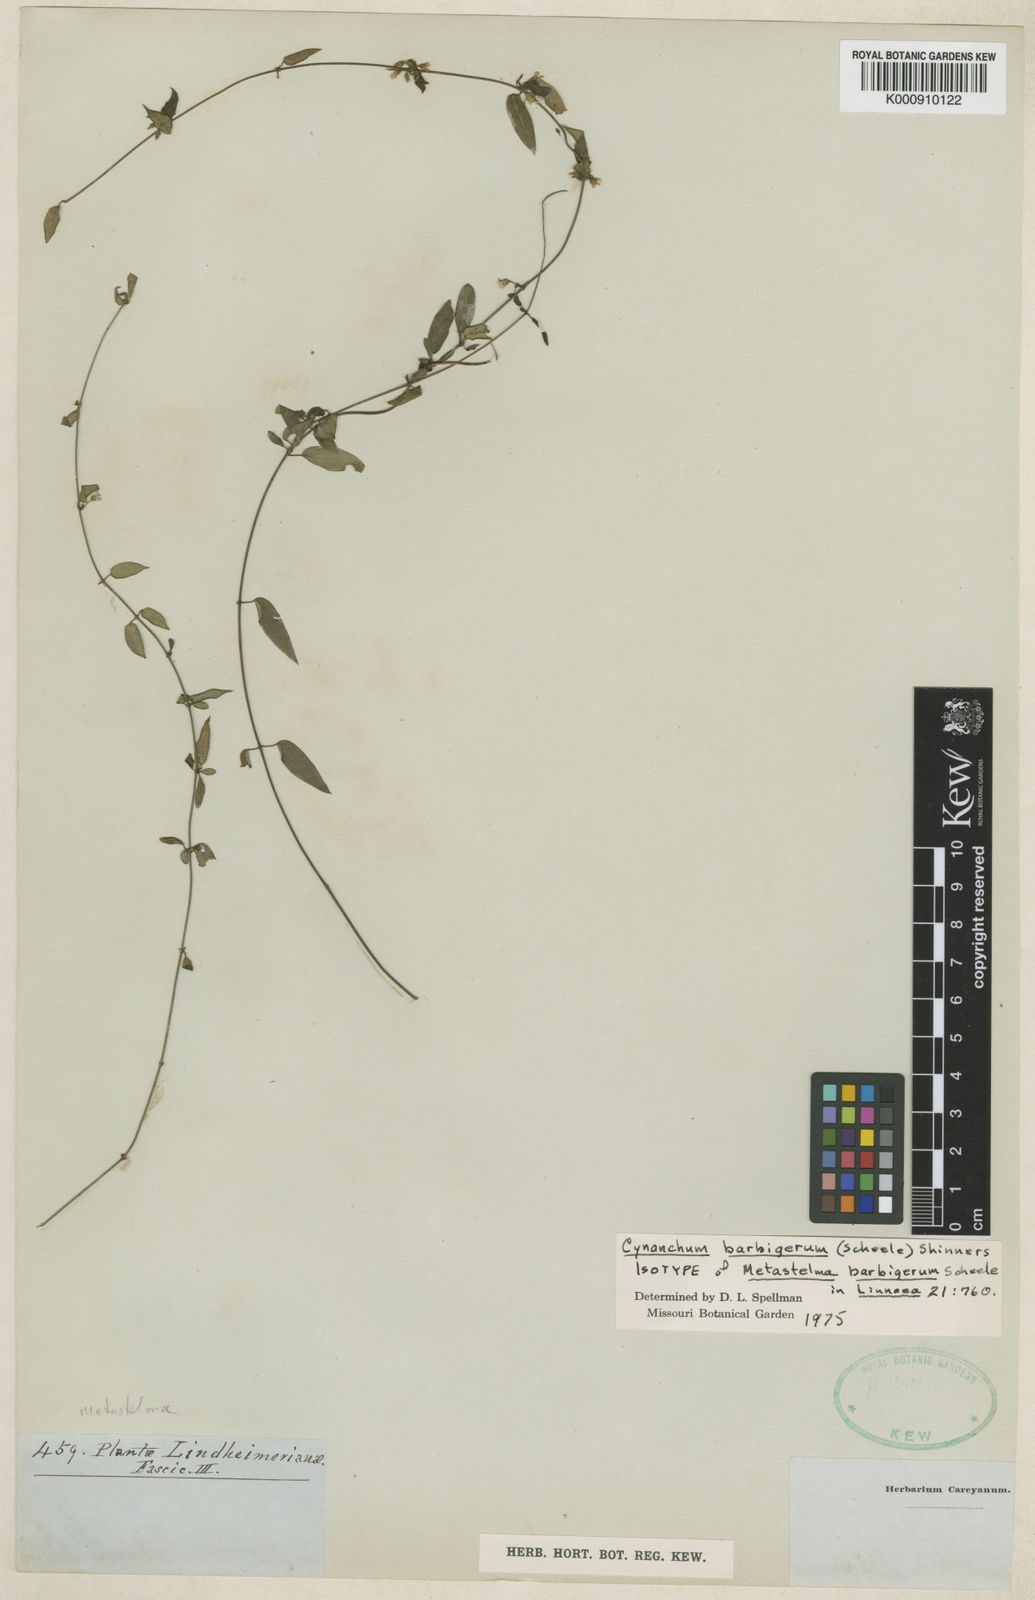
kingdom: Plantae
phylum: Tracheophyta
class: Magnoliopsida
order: Gentianales
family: Apocynaceae
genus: Metastelma
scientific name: Metastelma barbigerum
